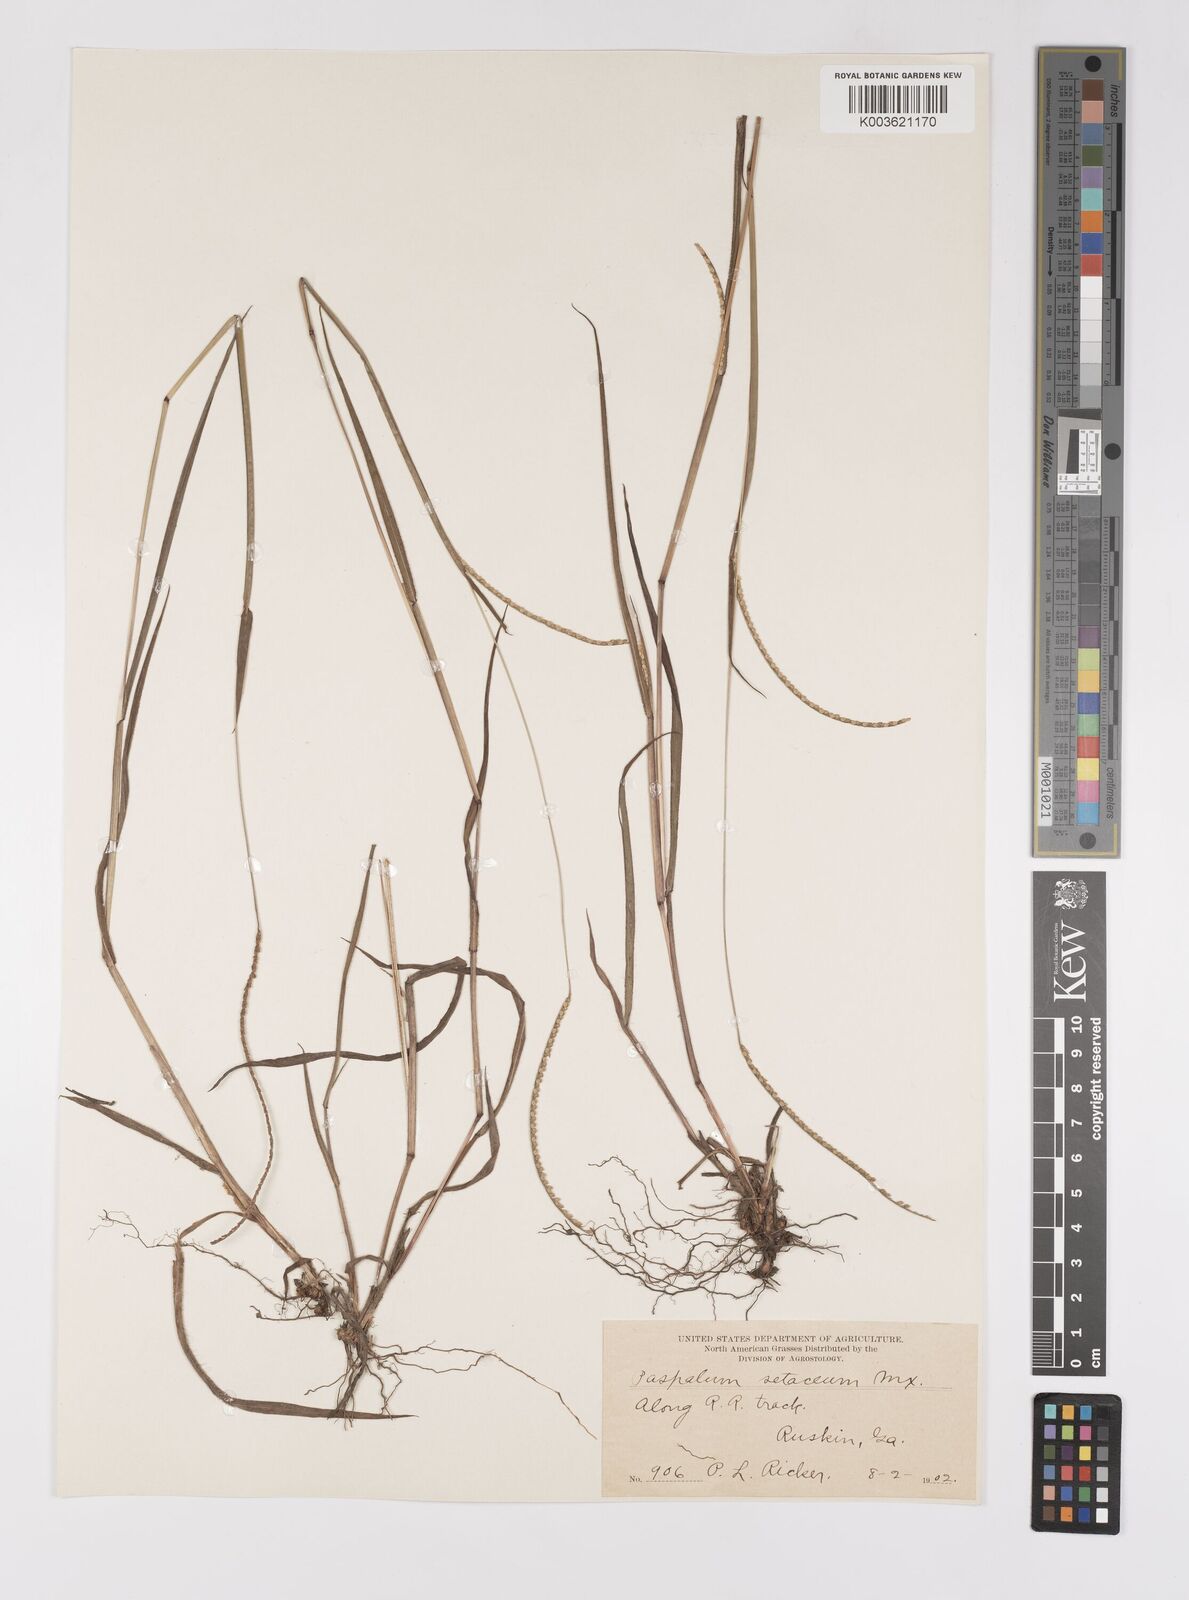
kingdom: Plantae
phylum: Tracheophyta
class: Liliopsida
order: Poales
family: Poaceae
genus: Paspalum
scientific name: Paspalum setaceum
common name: Slender paspalum
